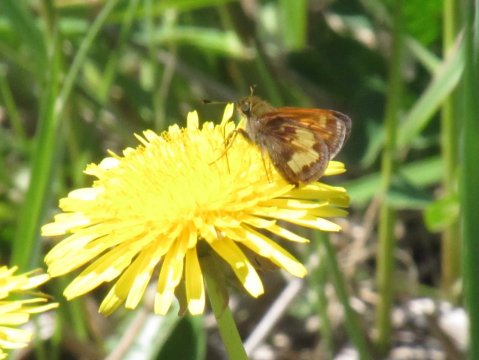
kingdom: Animalia
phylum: Arthropoda
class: Insecta
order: Lepidoptera
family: Hesperiidae
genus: Lon
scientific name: Lon hobomok
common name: Hobomok Skipper
